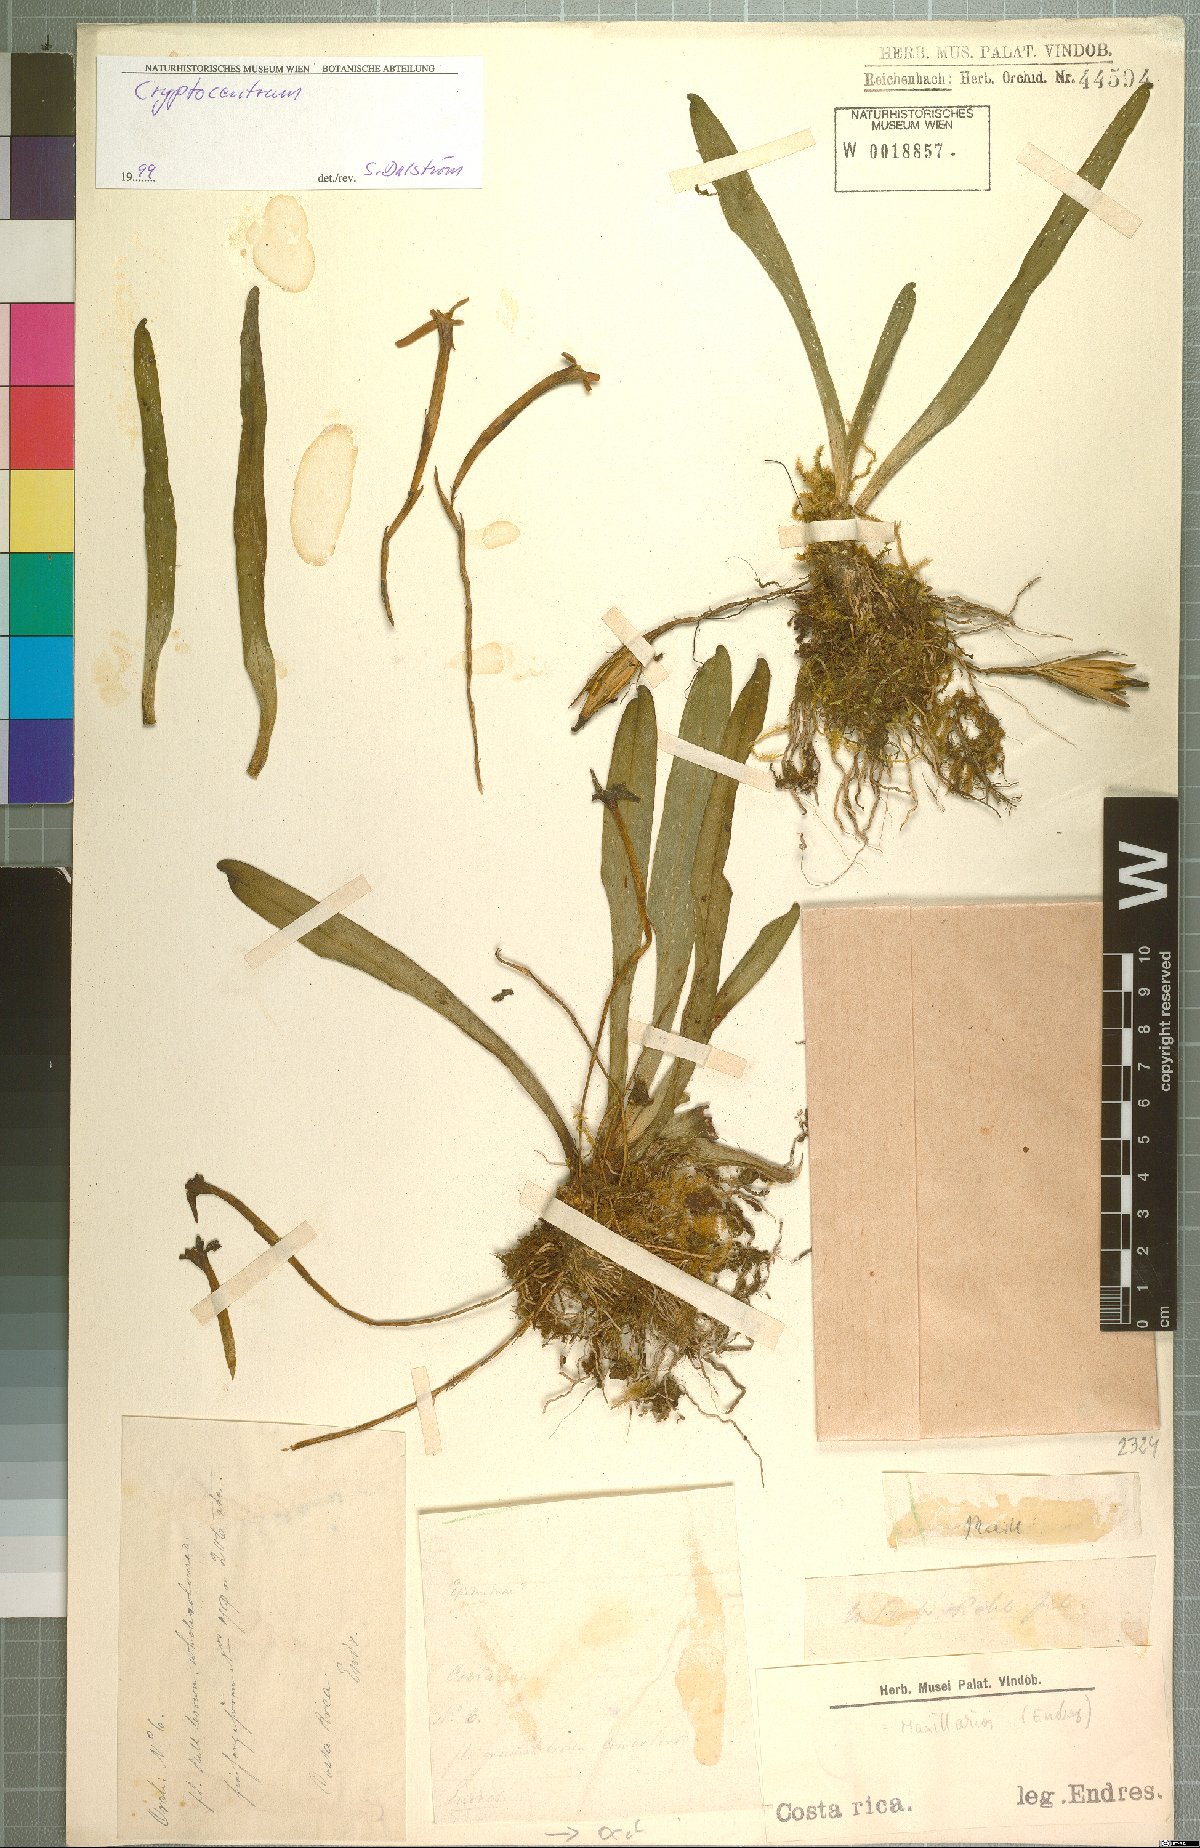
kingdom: Plantae
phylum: Tracheophyta
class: Liliopsida
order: Asparagales
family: Orchidaceae
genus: Maxillaria
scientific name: Maxillaria amplifoliata
